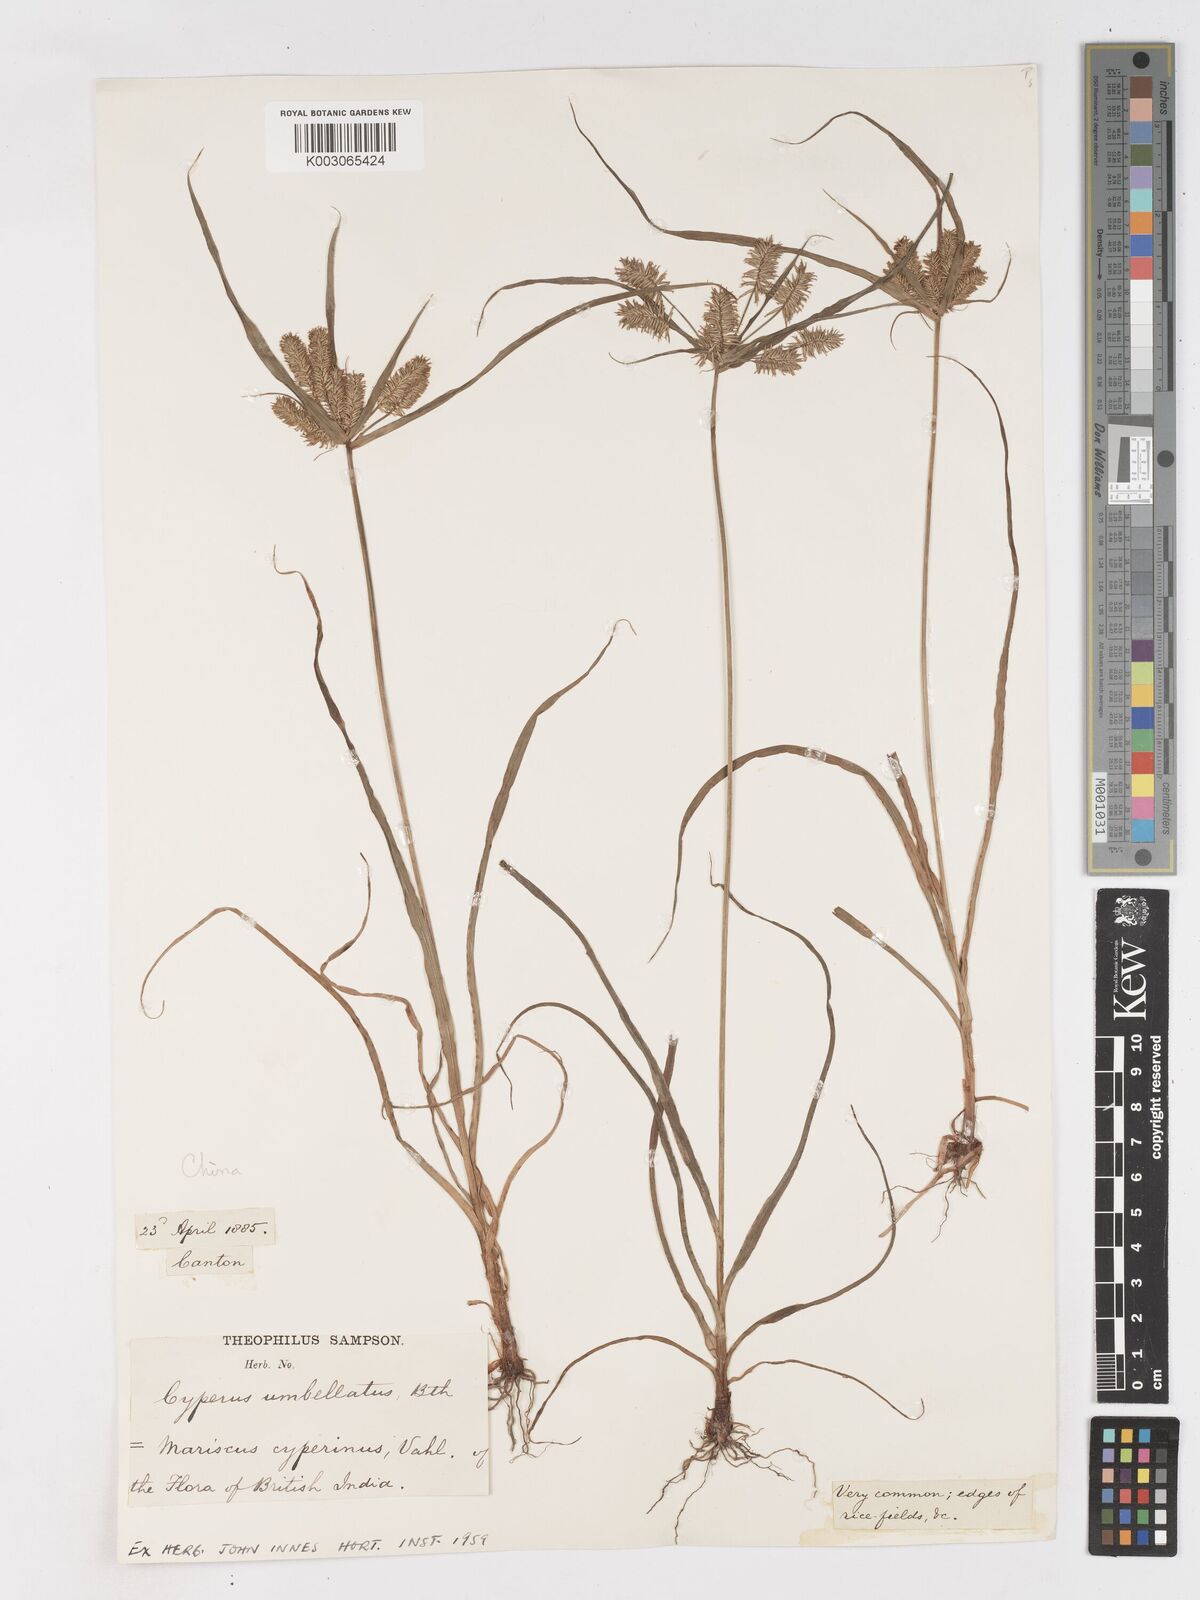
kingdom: Plantae
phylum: Tracheophyta
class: Liliopsida
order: Poales
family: Cyperaceae
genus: Cyperus
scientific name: Cyperus cyperinus
